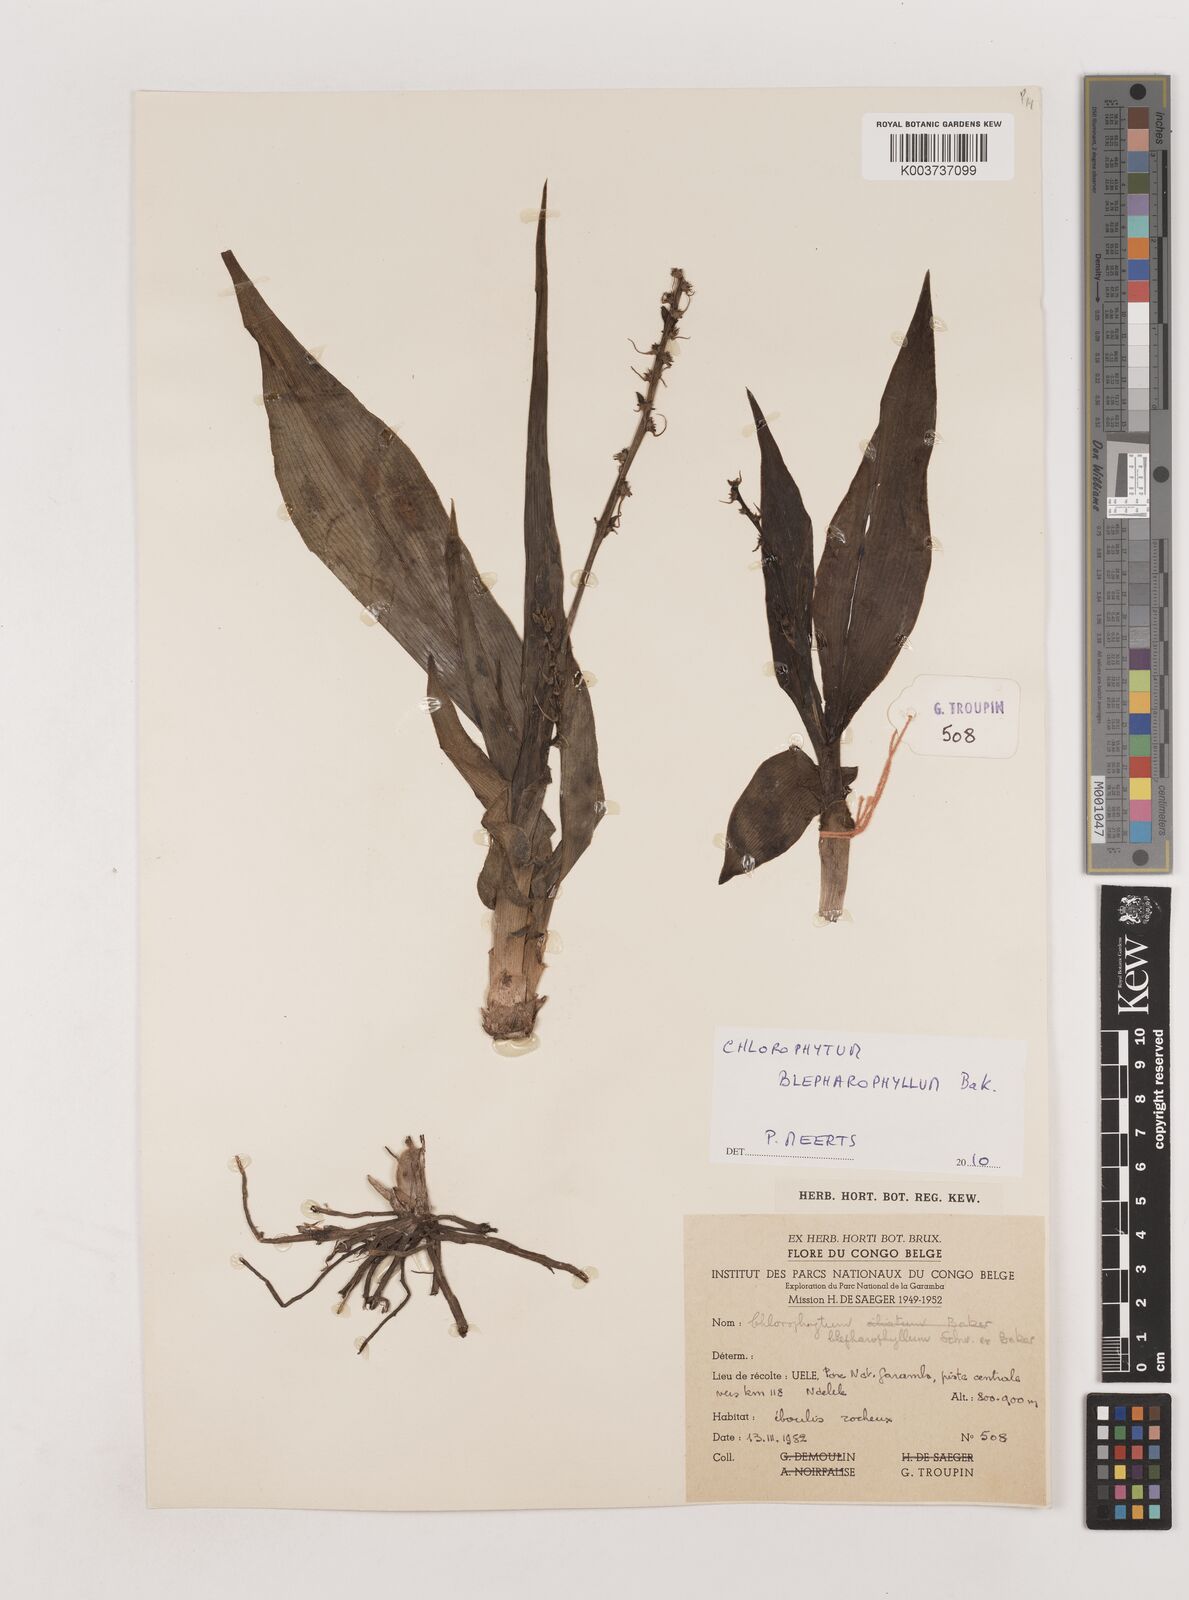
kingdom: Plantae
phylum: Tracheophyta
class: Liliopsida
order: Asparagales
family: Asparagaceae
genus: Chlorophytum
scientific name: Chlorophytum blepharophyllum
